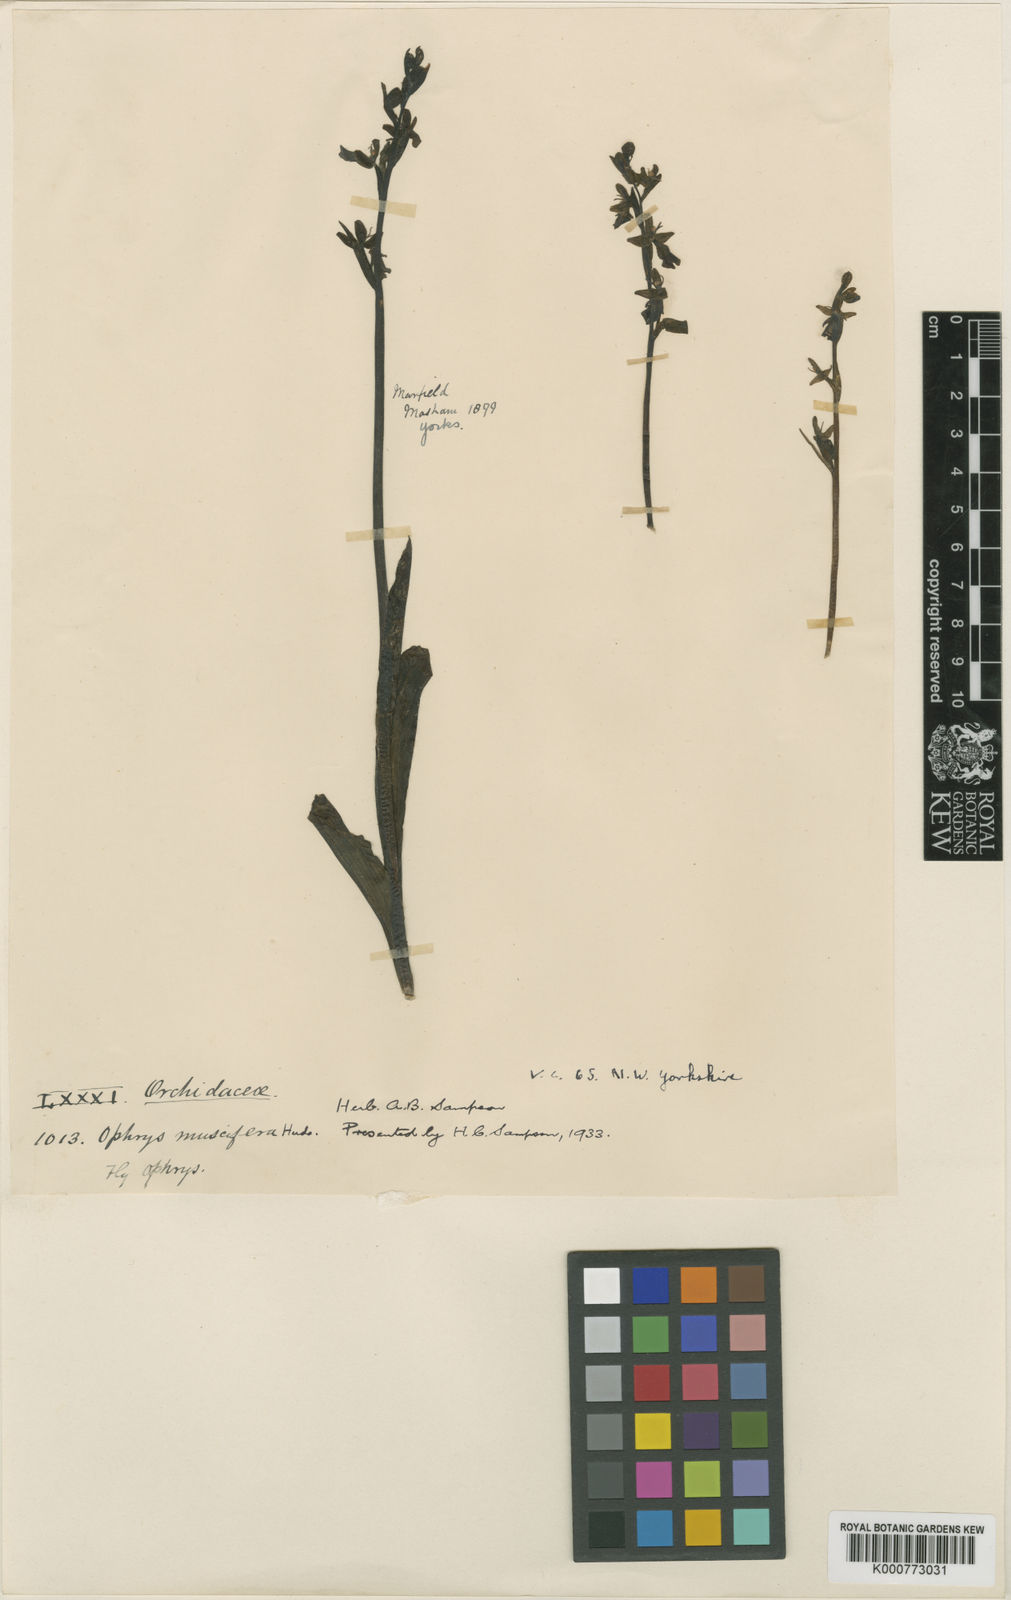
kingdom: Plantae
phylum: Tracheophyta
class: Liliopsida
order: Asparagales
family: Orchidaceae
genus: Ophrys
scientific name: Ophrys insectifera
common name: Fly orchid
